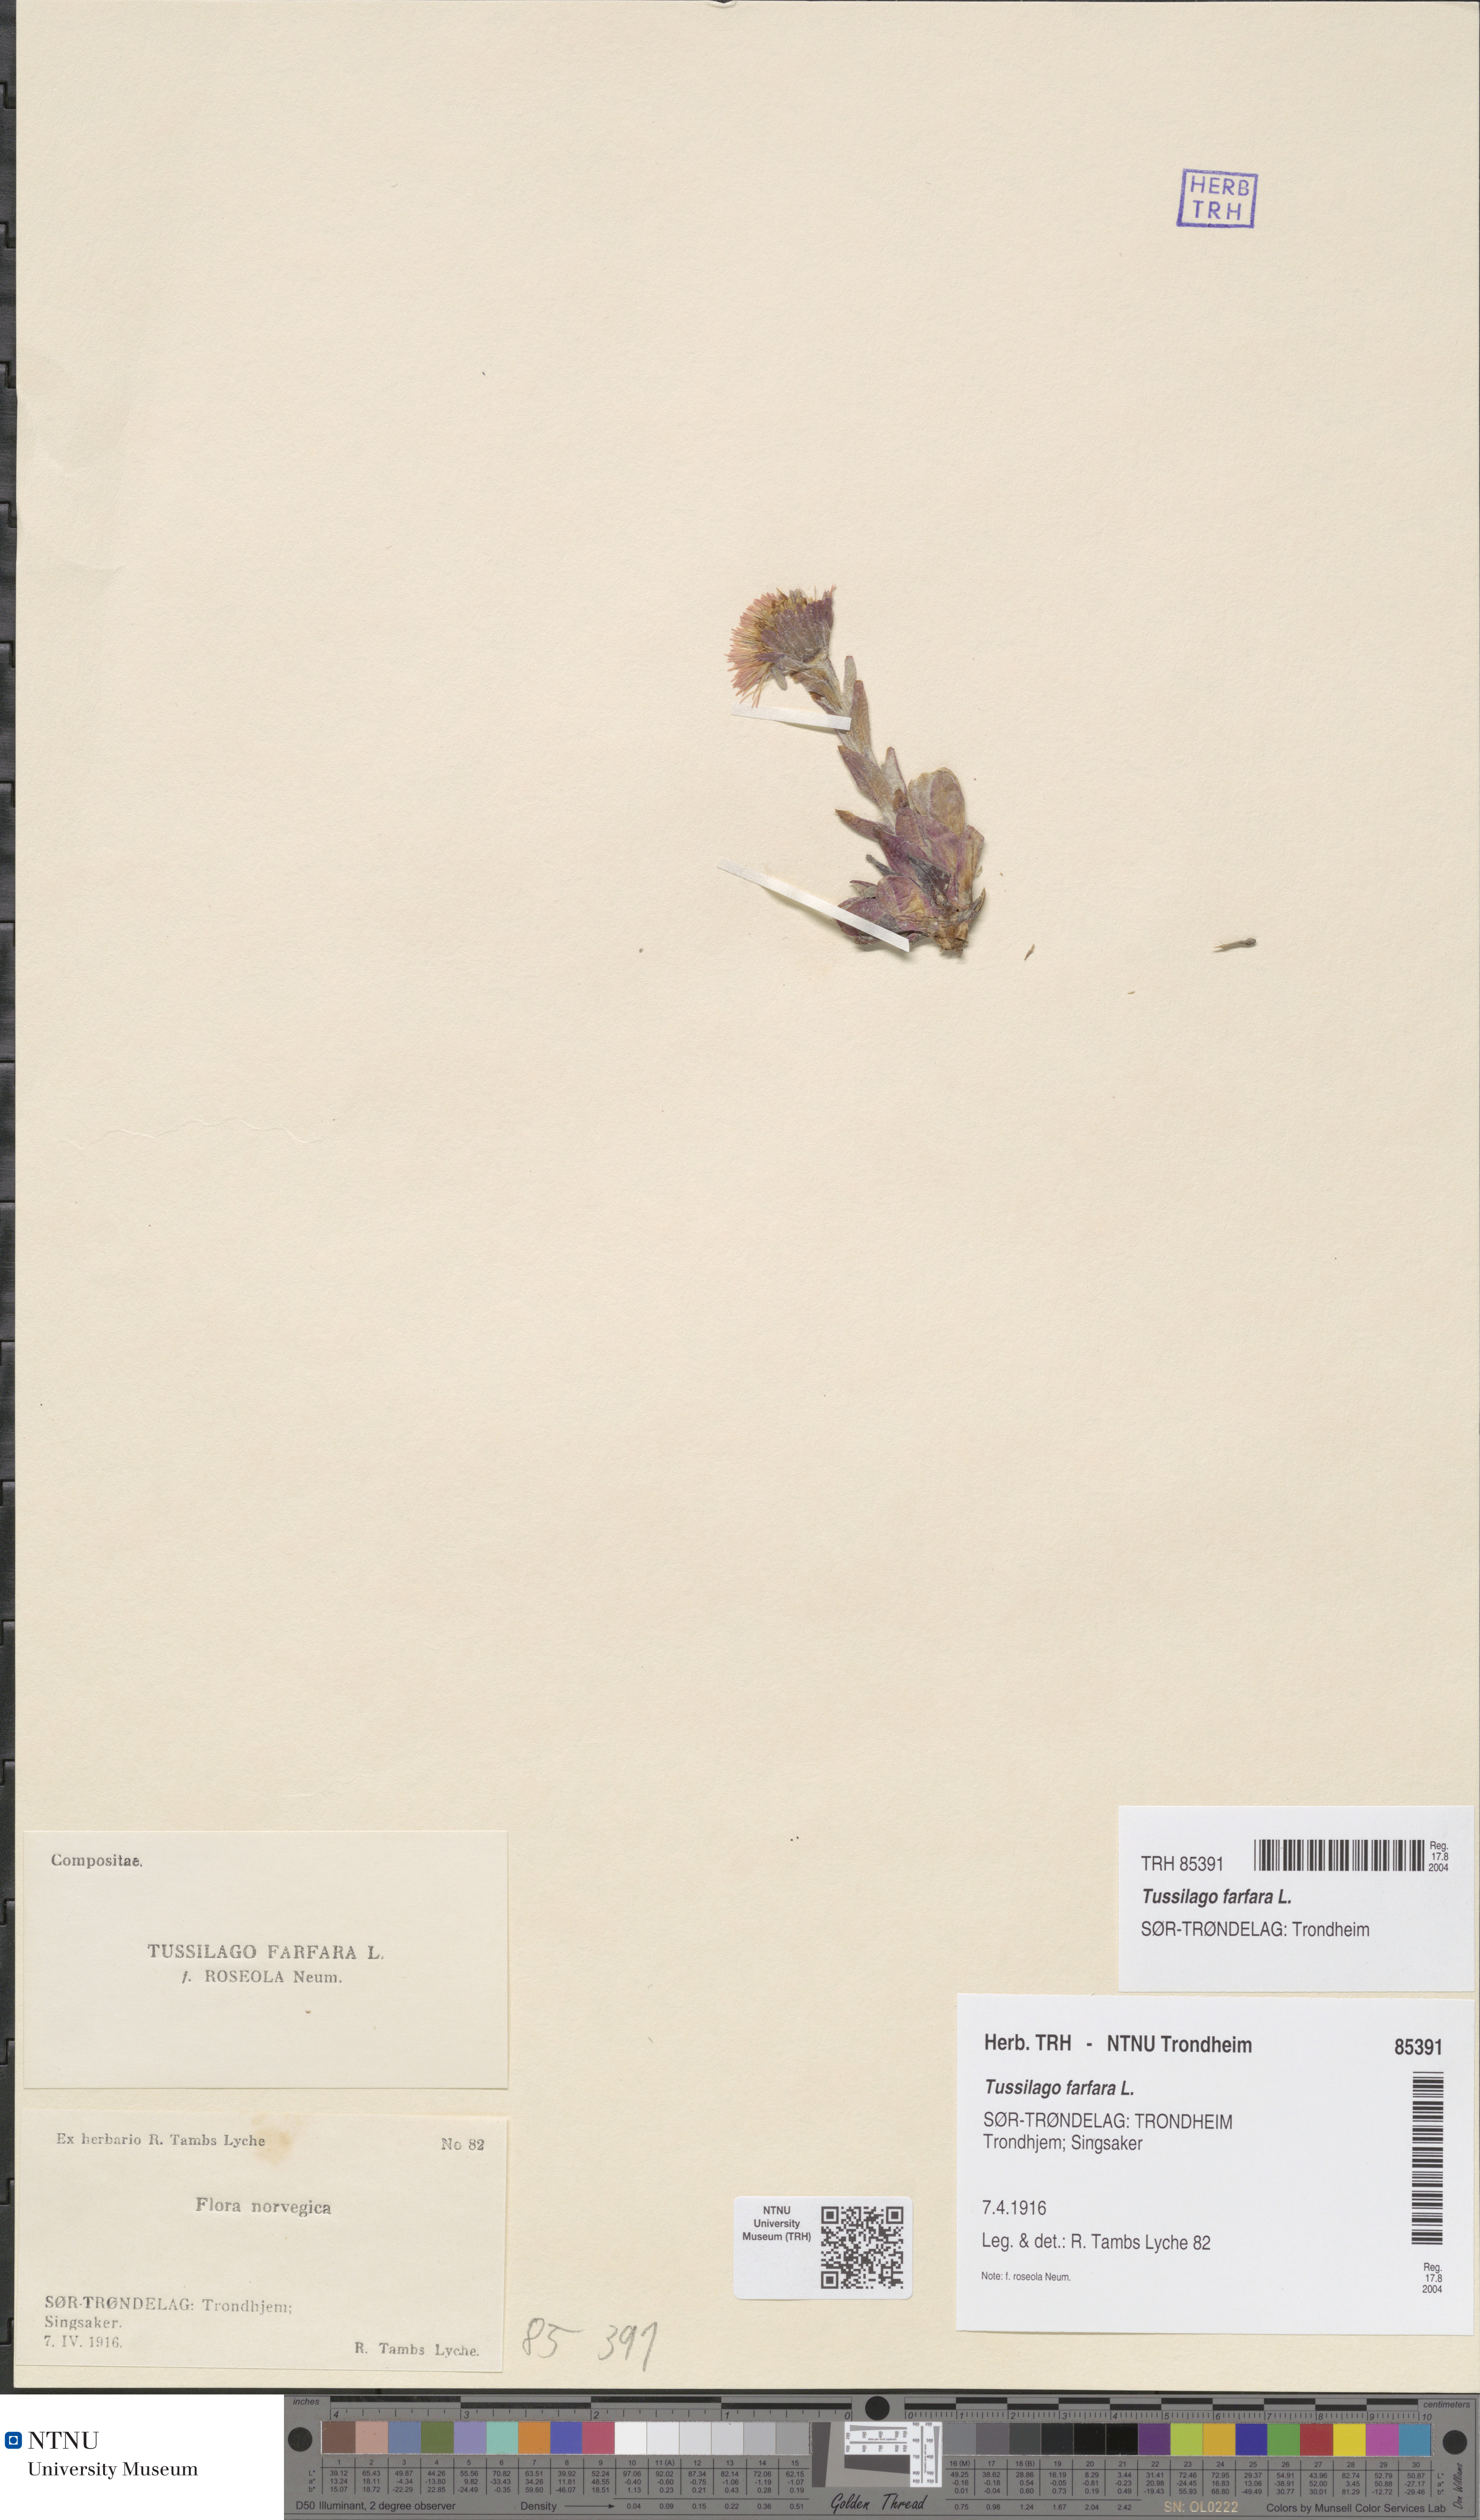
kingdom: Plantae
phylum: Tracheophyta
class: Magnoliopsida
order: Asterales
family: Asteraceae
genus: Tussilago
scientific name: Tussilago farfara
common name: Coltsfoot
